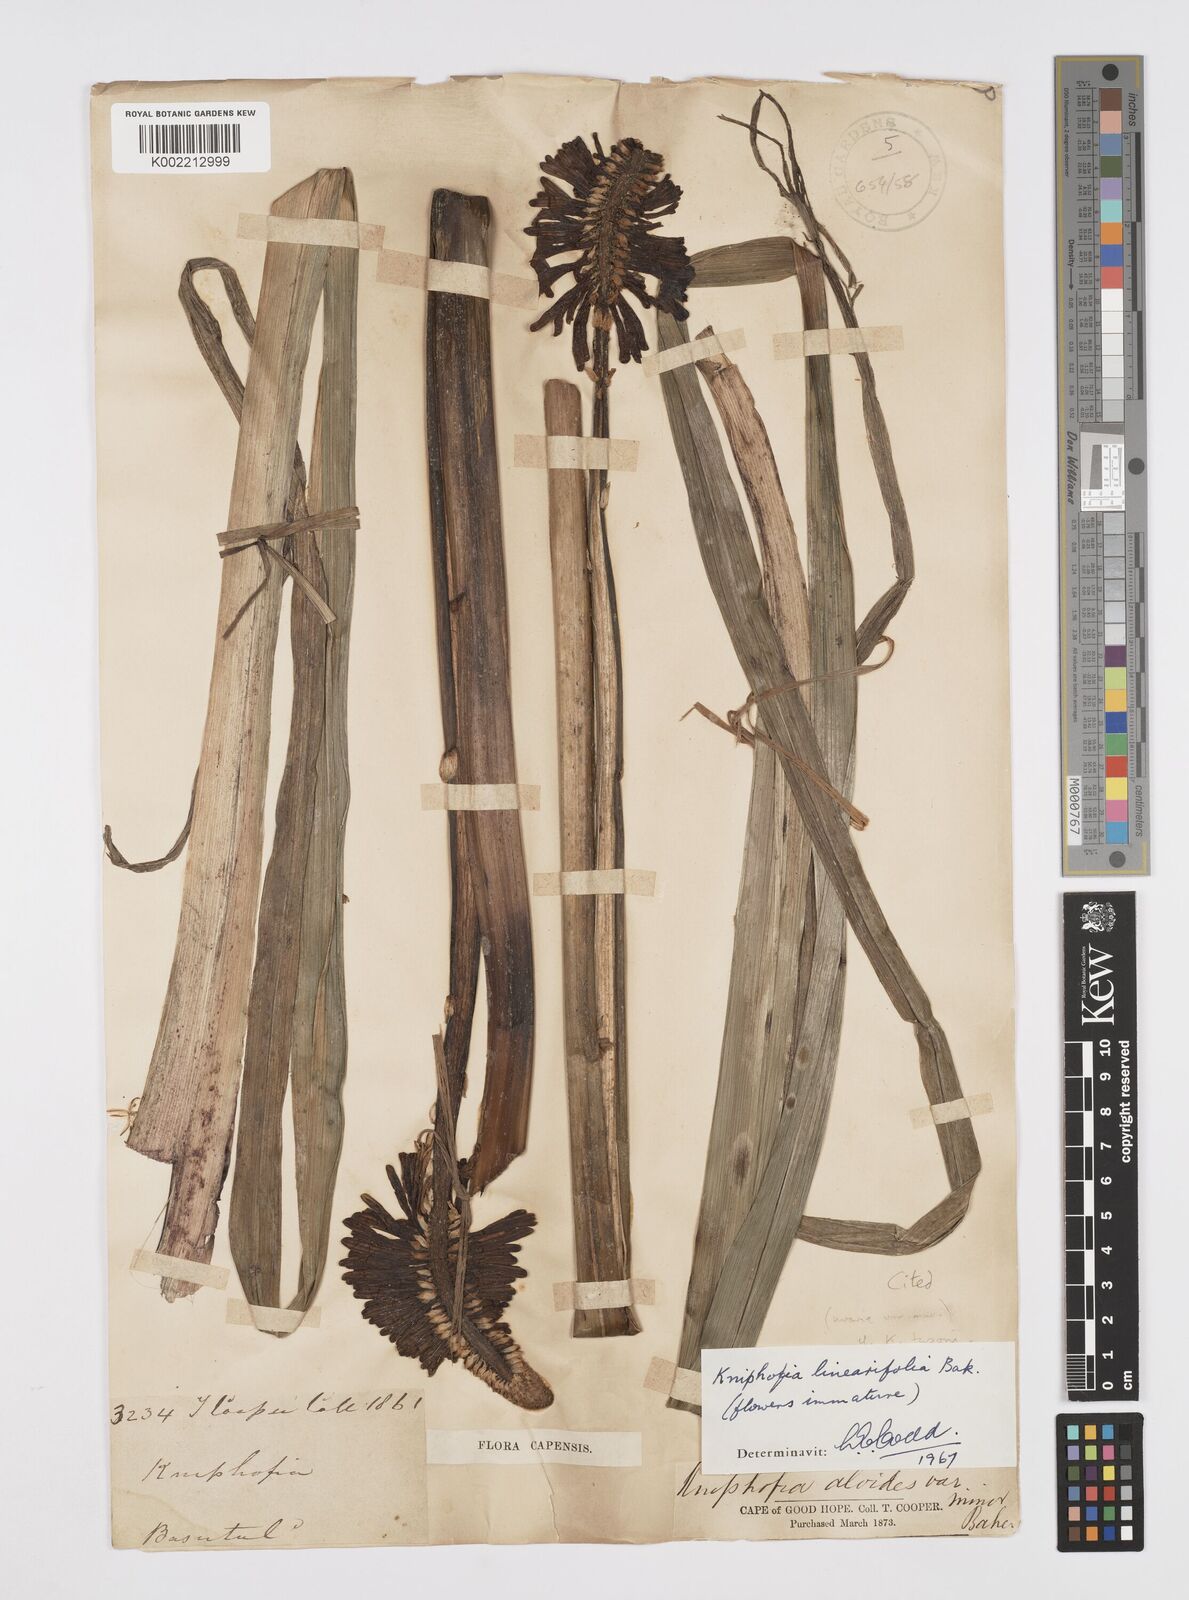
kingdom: Plantae
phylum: Tracheophyta
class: Liliopsida
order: Asparagales
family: Asphodelaceae
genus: Kniphofia
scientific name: Kniphofia linearifolia
